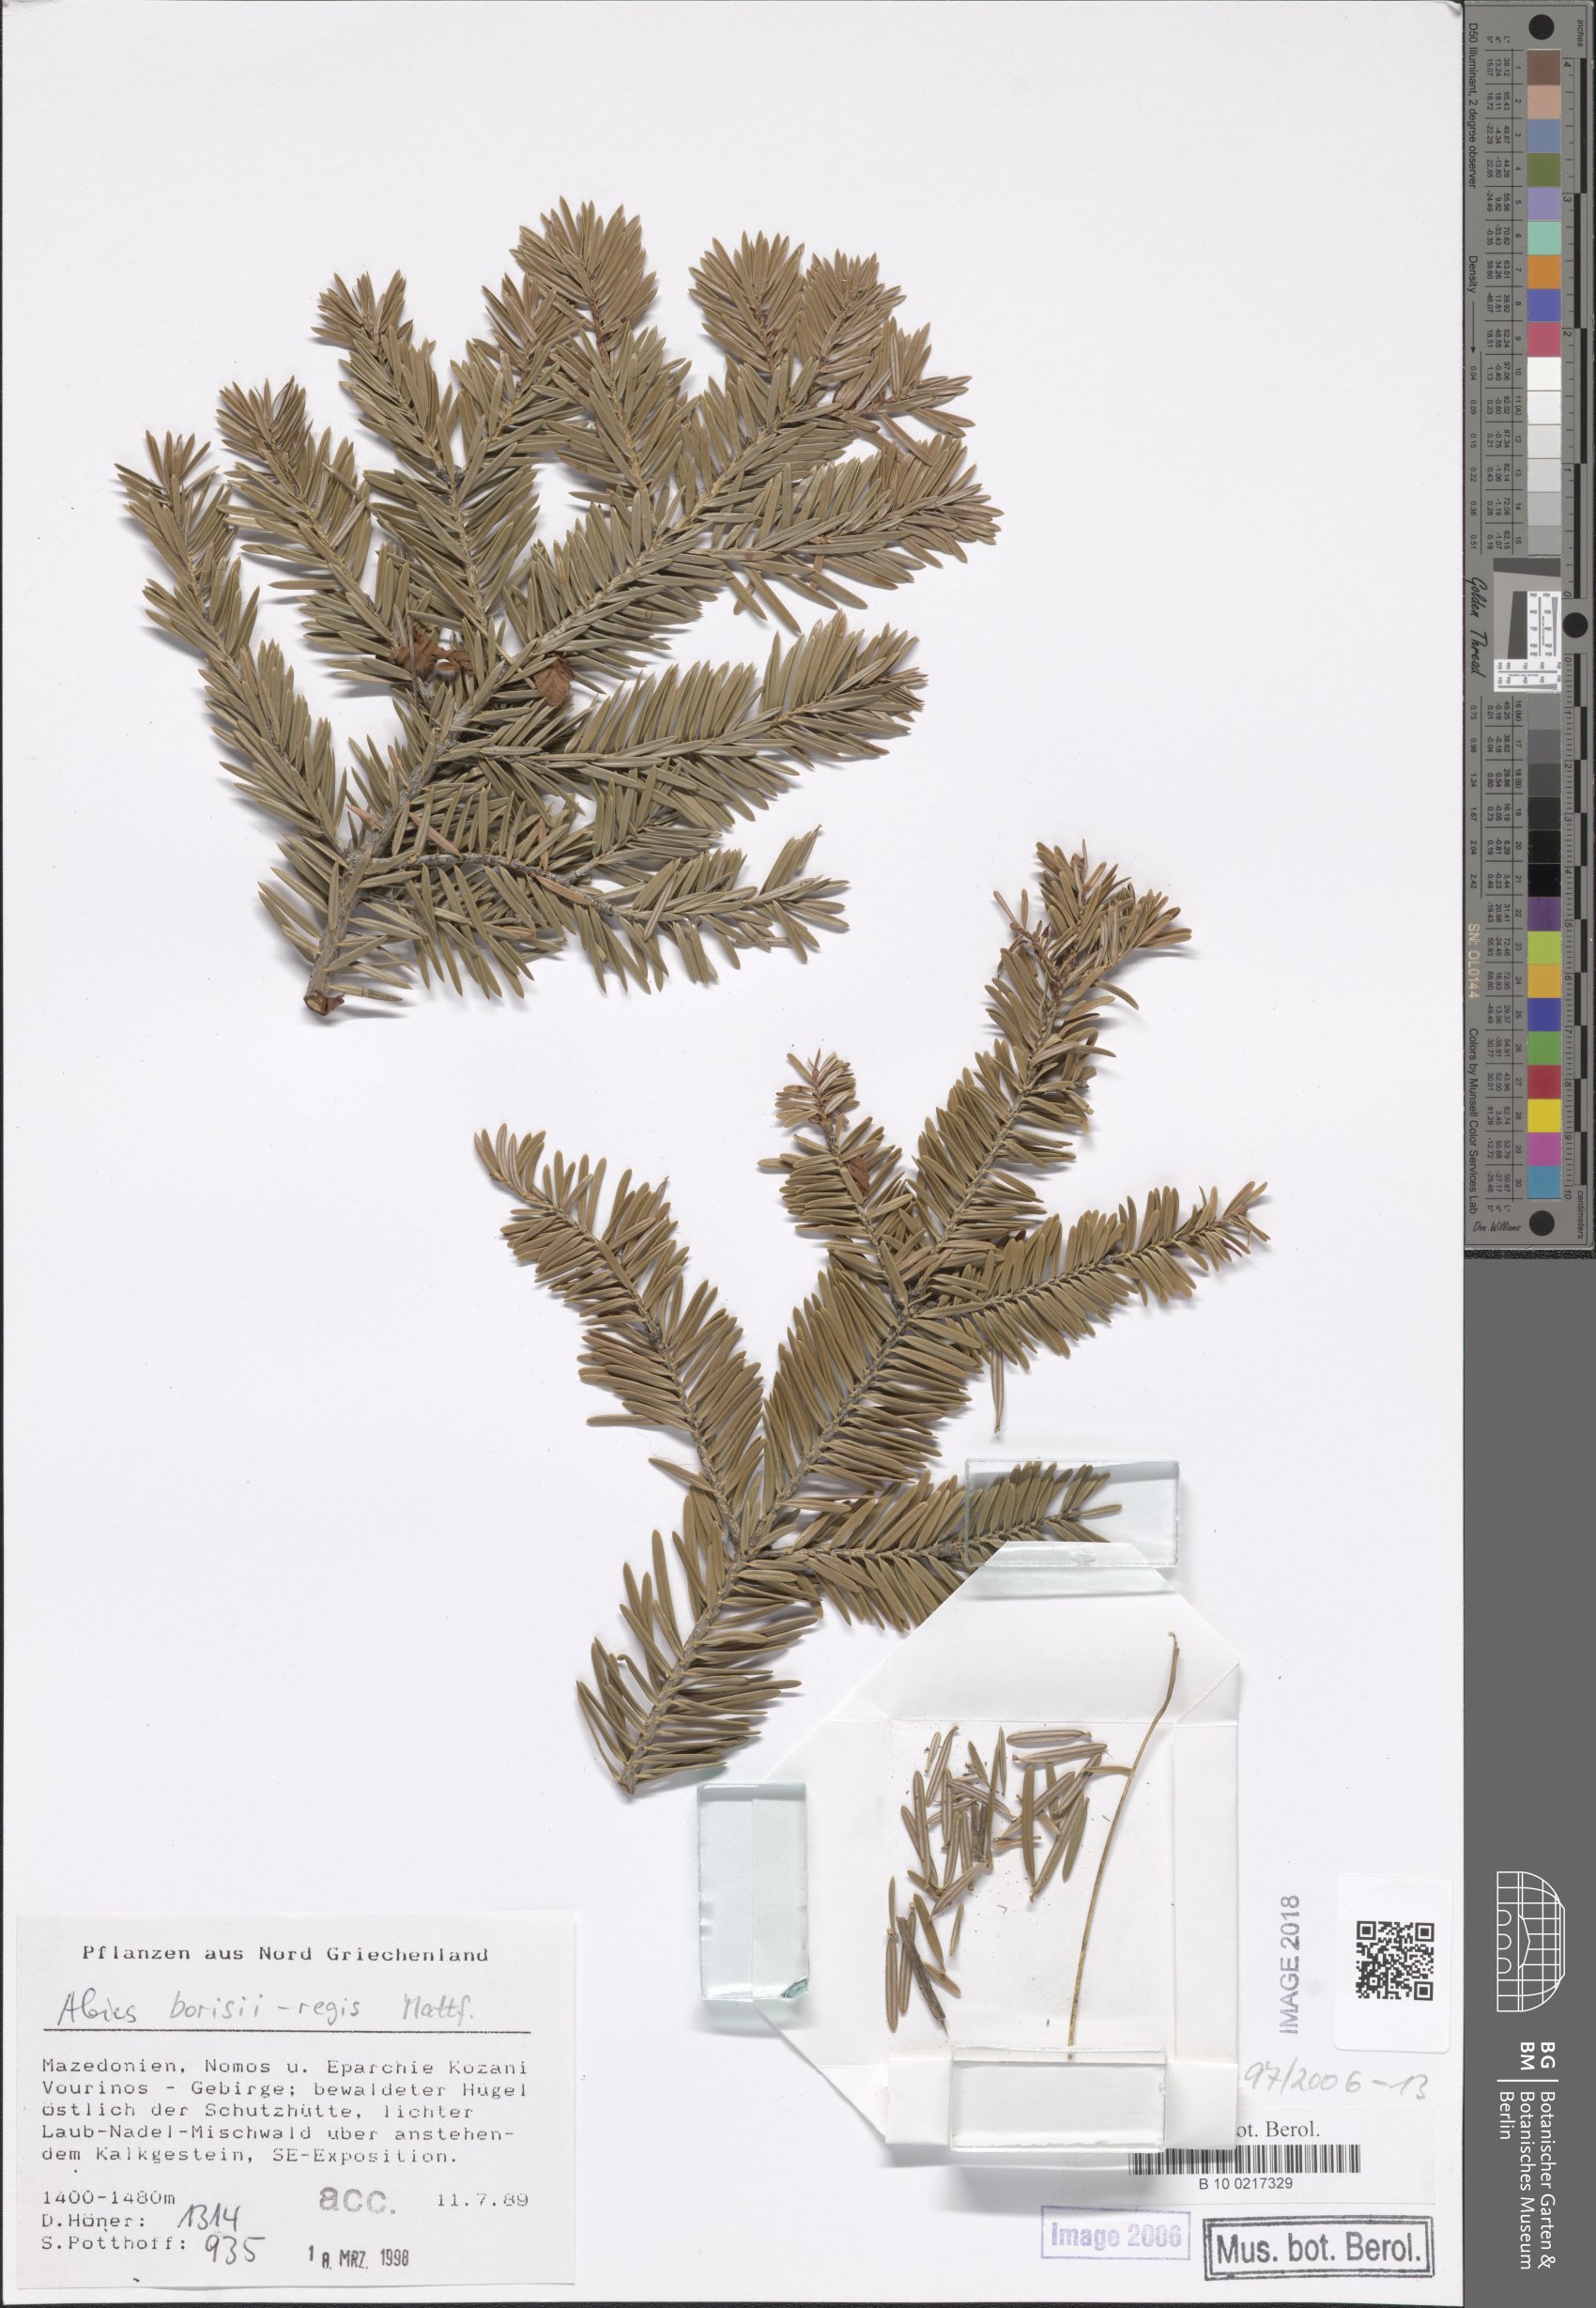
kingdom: Plantae
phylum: Tracheophyta
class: Pinopsida
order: Pinales
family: Pinaceae
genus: Abies
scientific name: Abies borisii-regis
